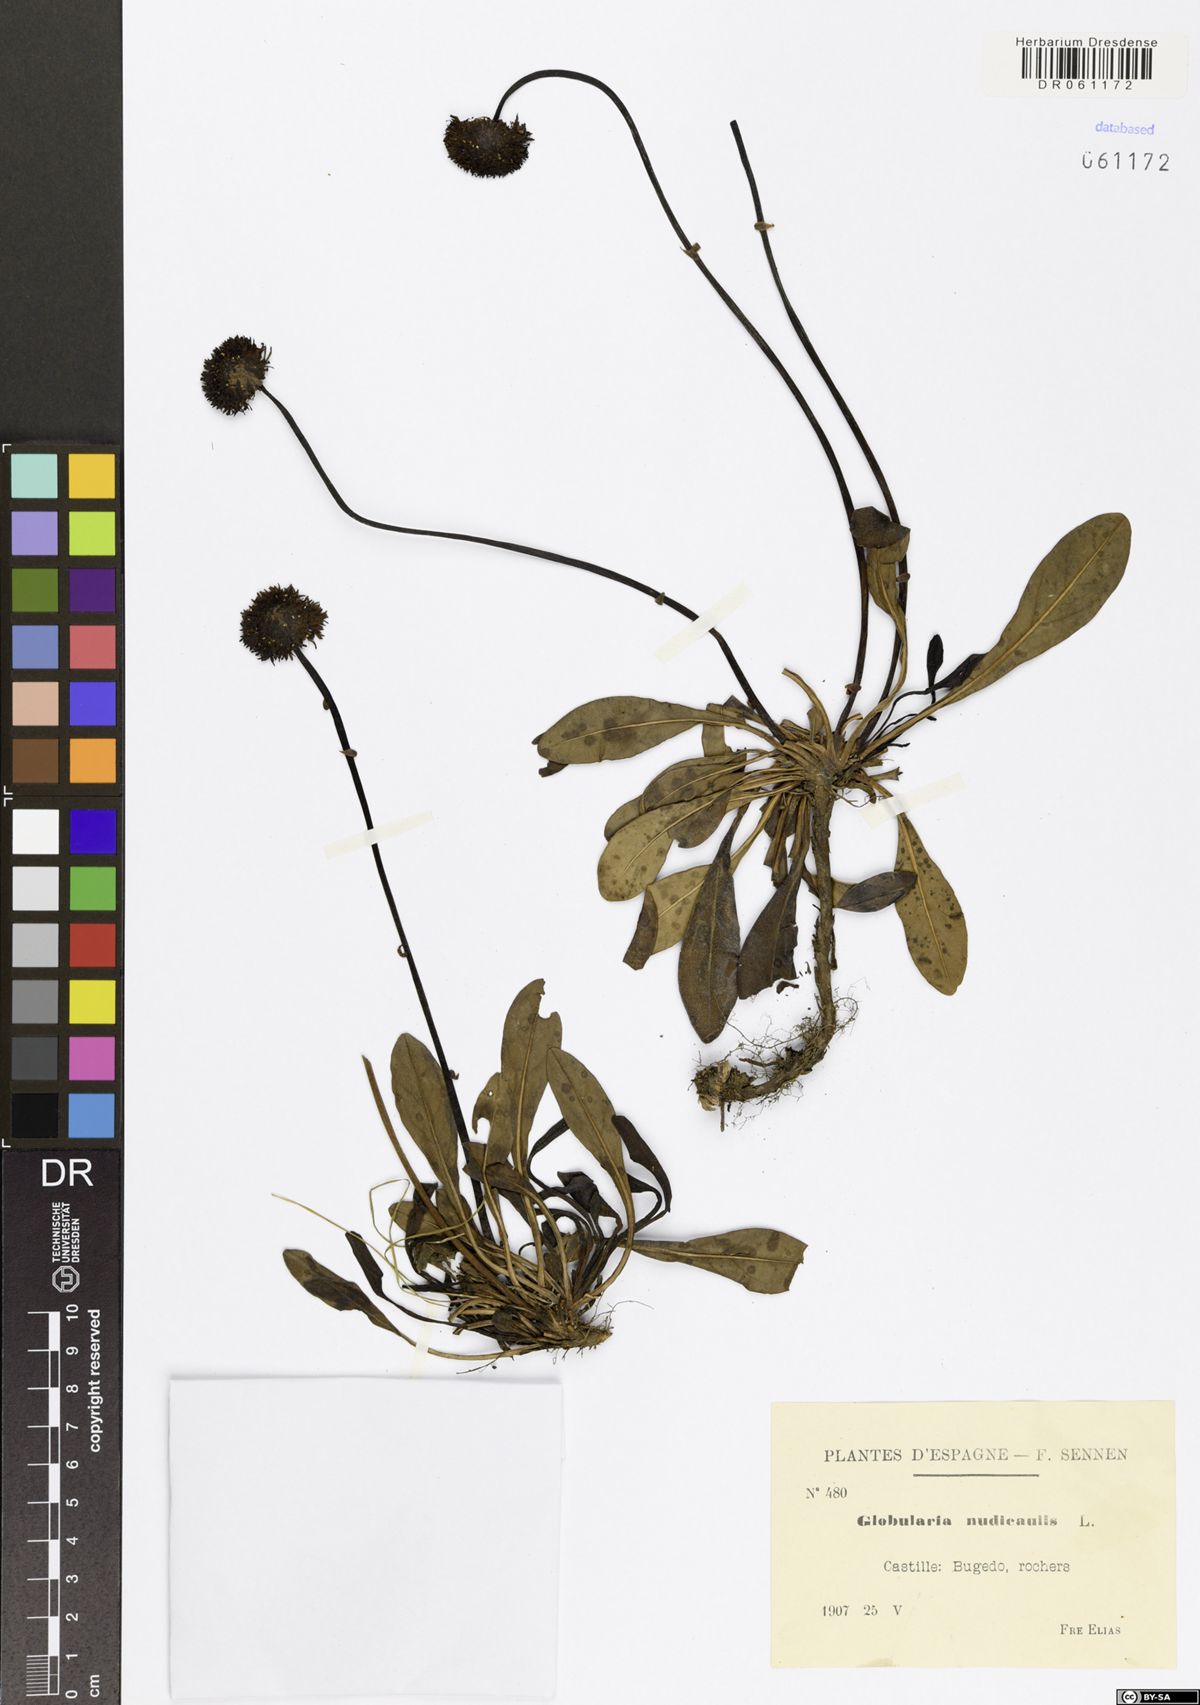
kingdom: Plantae
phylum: Tracheophyta
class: Magnoliopsida
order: Lamiales
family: Plantaginaceae
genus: Globularia
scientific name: Globularia nudicaulis
